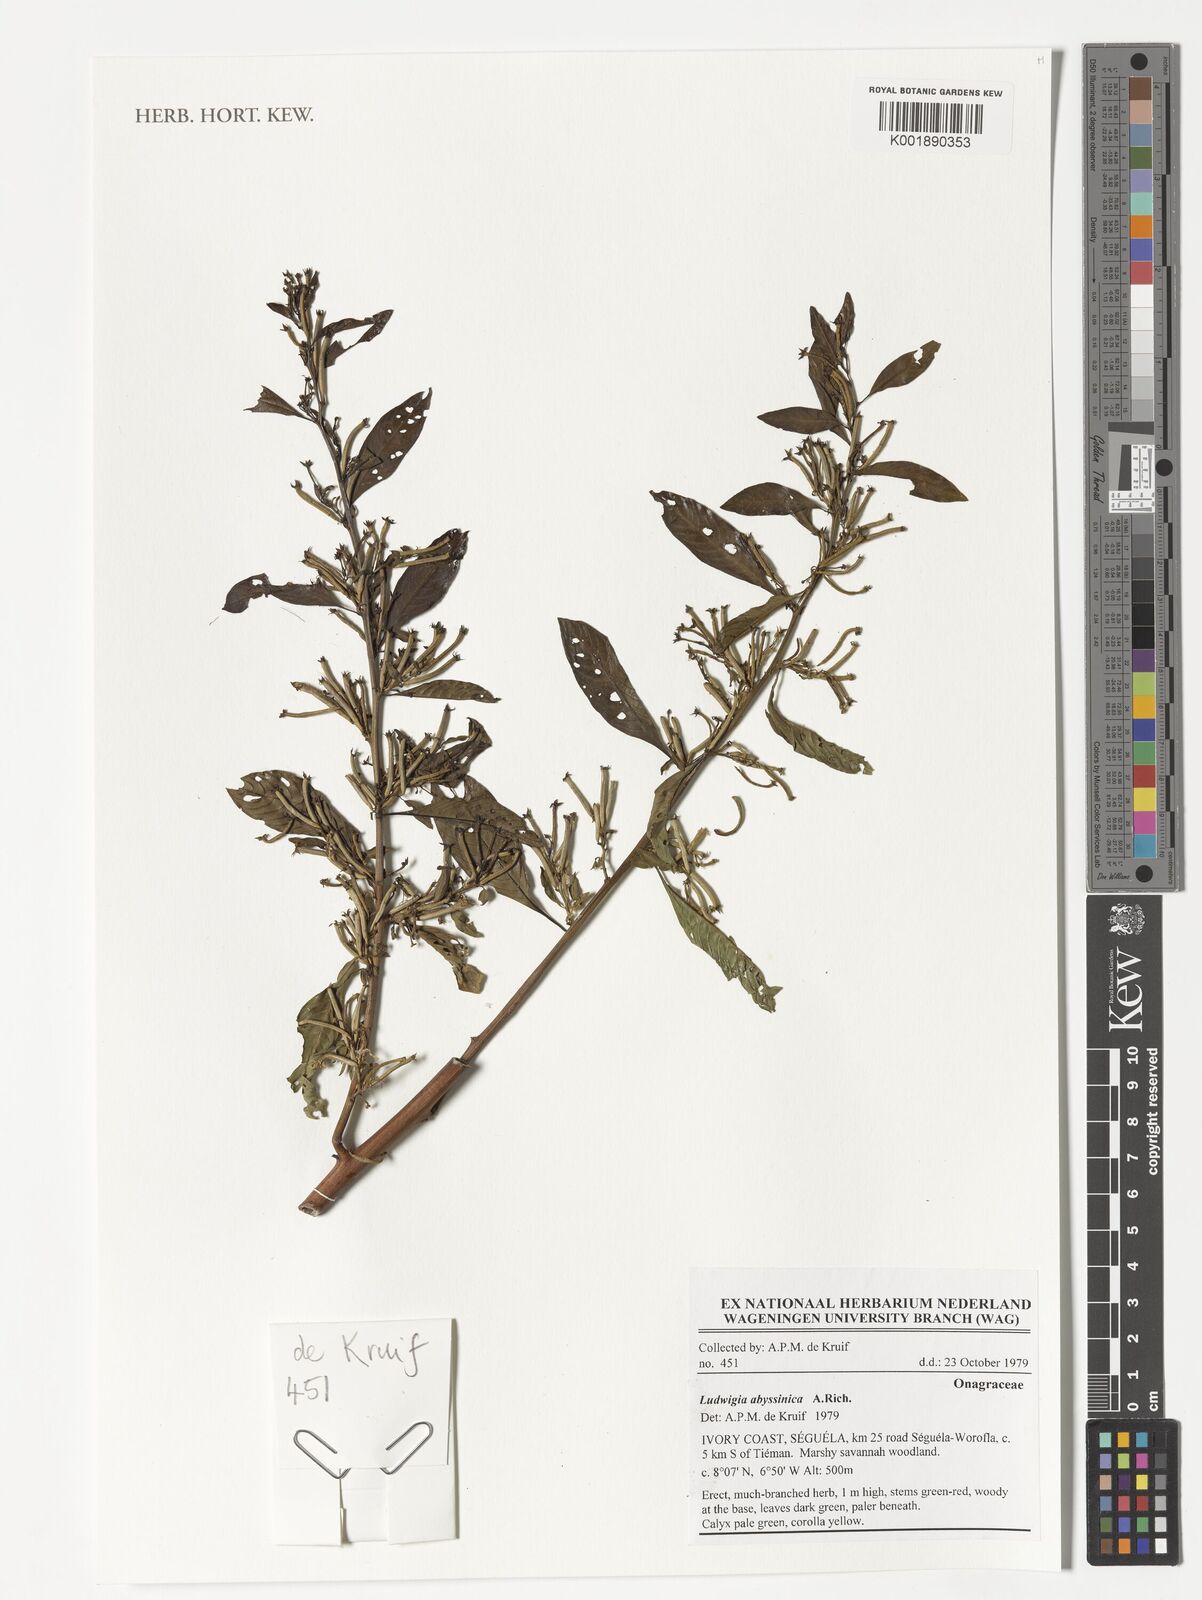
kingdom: Plantae
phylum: Tracheophyta
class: Magnoliopsida
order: Myrtales
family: Onagraceae
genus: Ludwigia
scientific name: Ludwigia abyssinica
